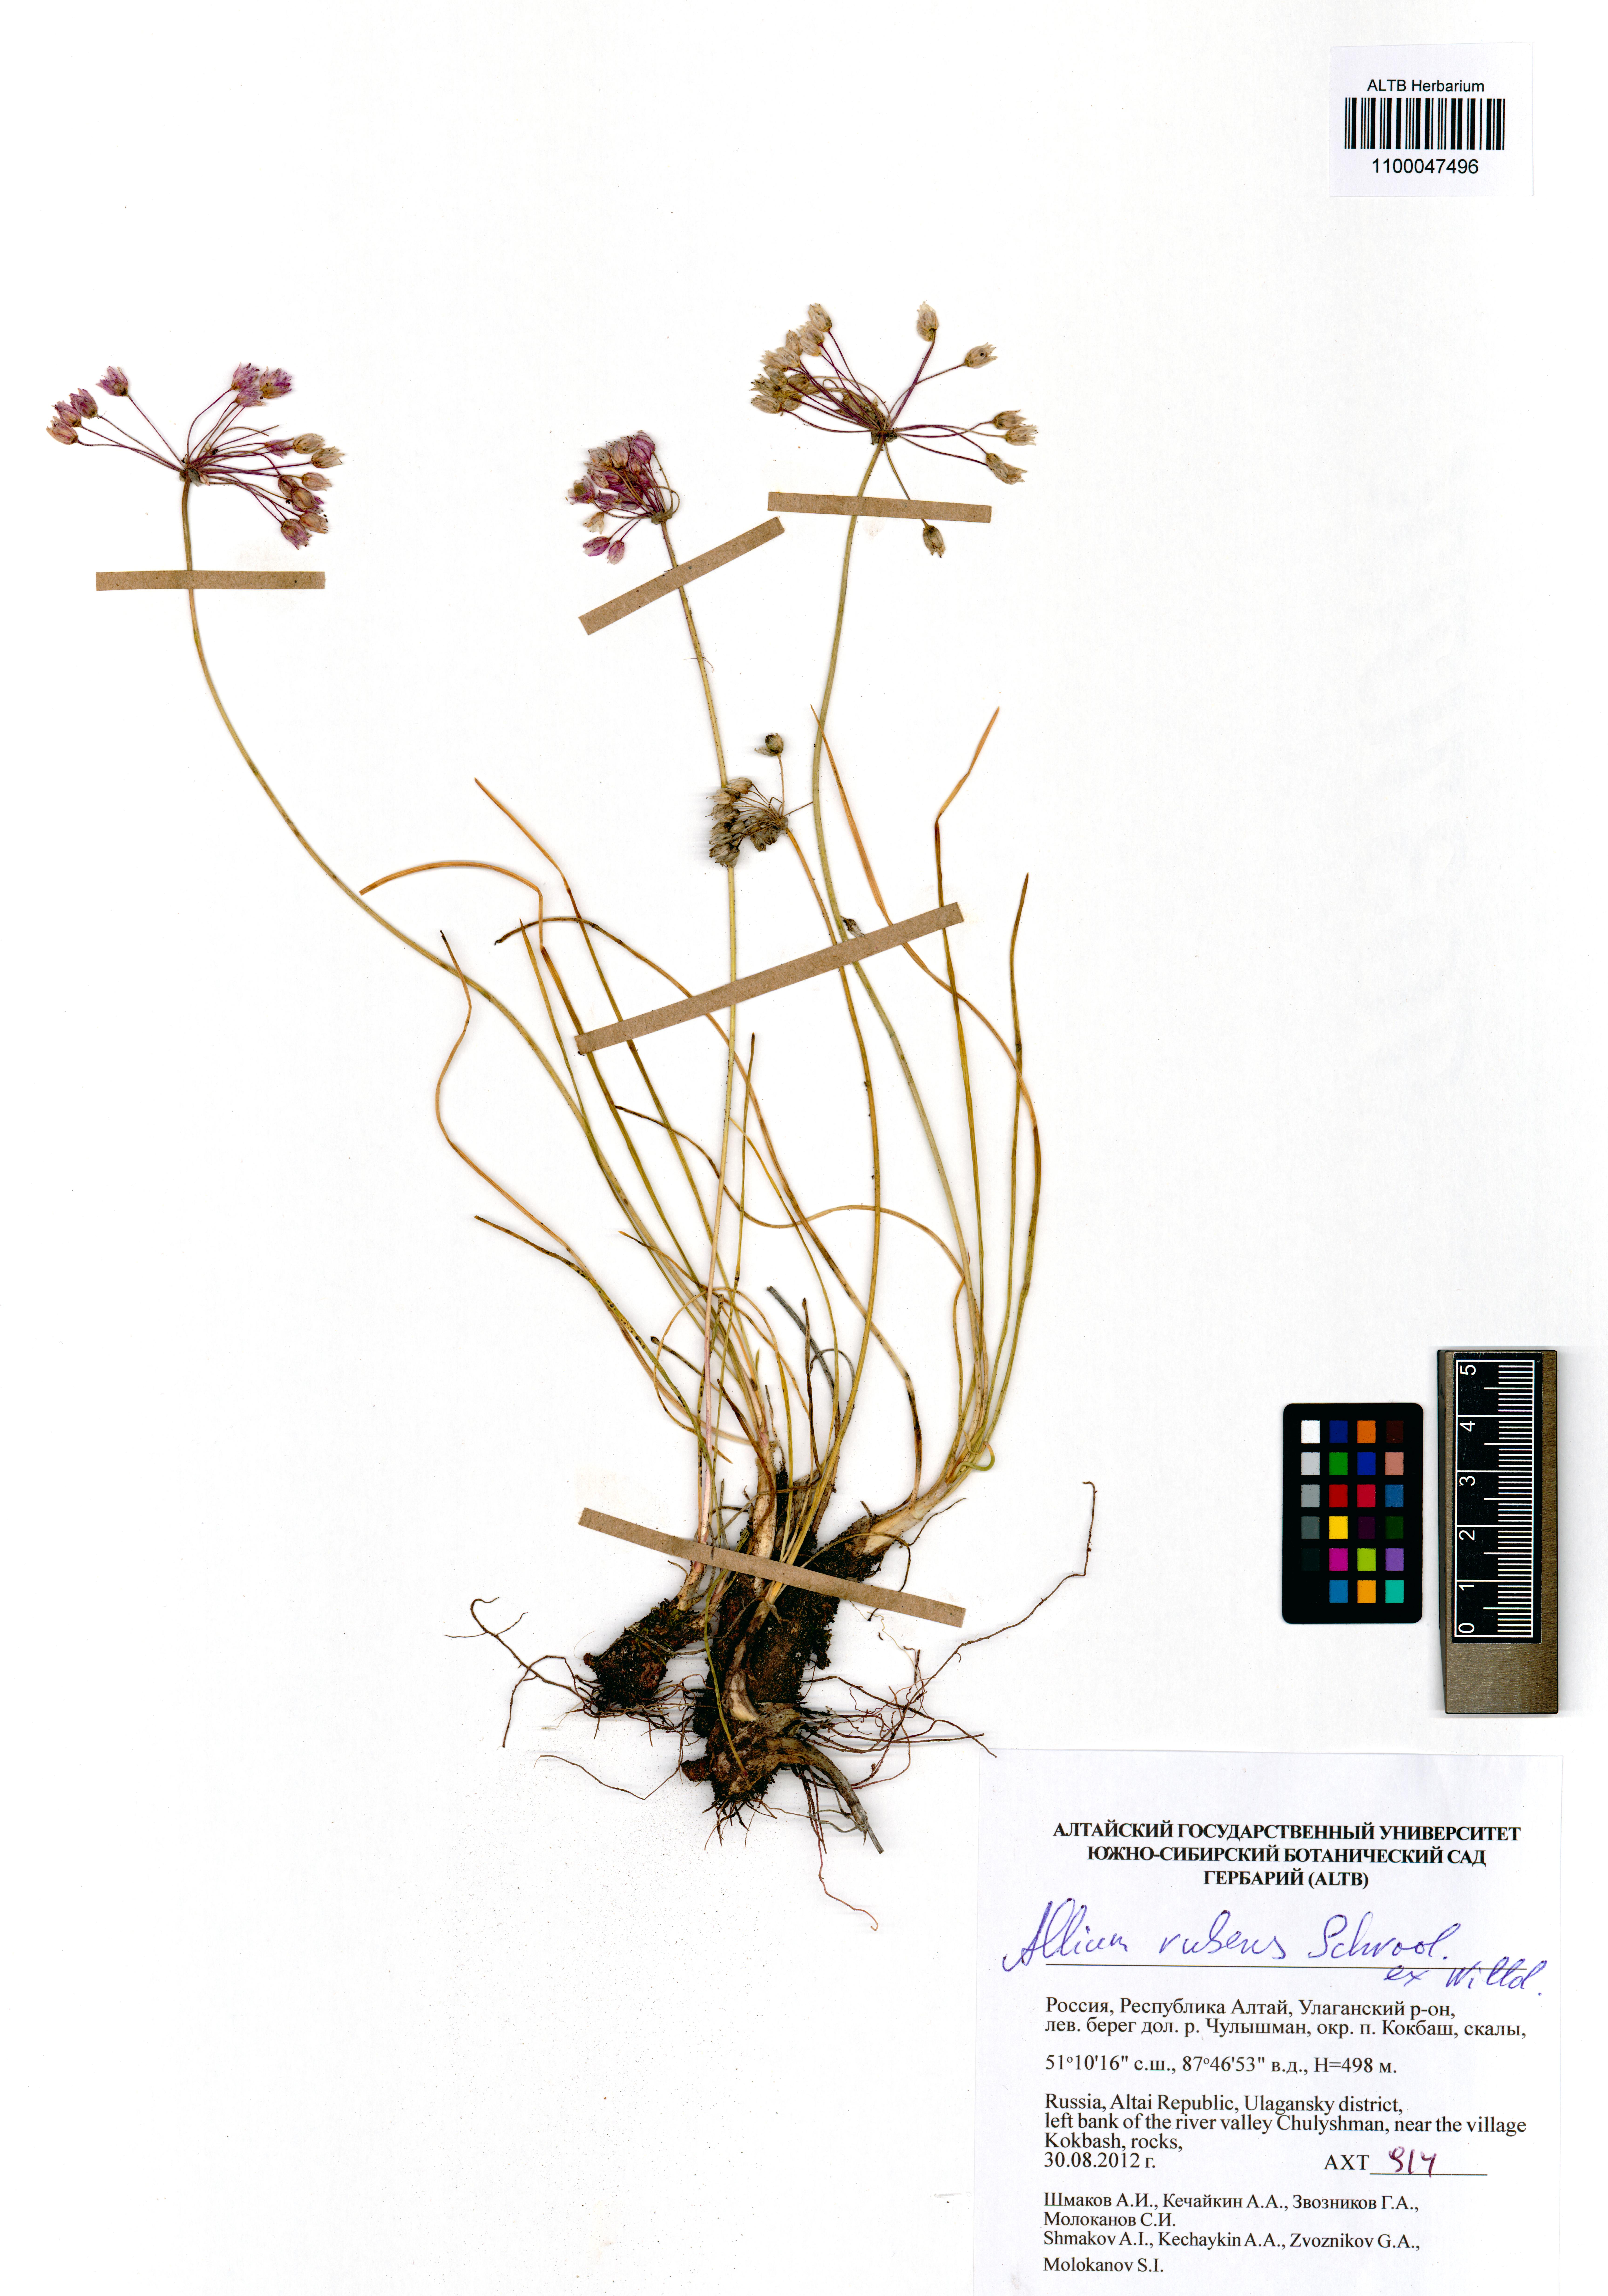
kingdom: Plantae
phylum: Tracheophyta
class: Liliopsida
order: Asparagales
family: Amaryllidaceae
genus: Allium
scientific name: Allium rubens
